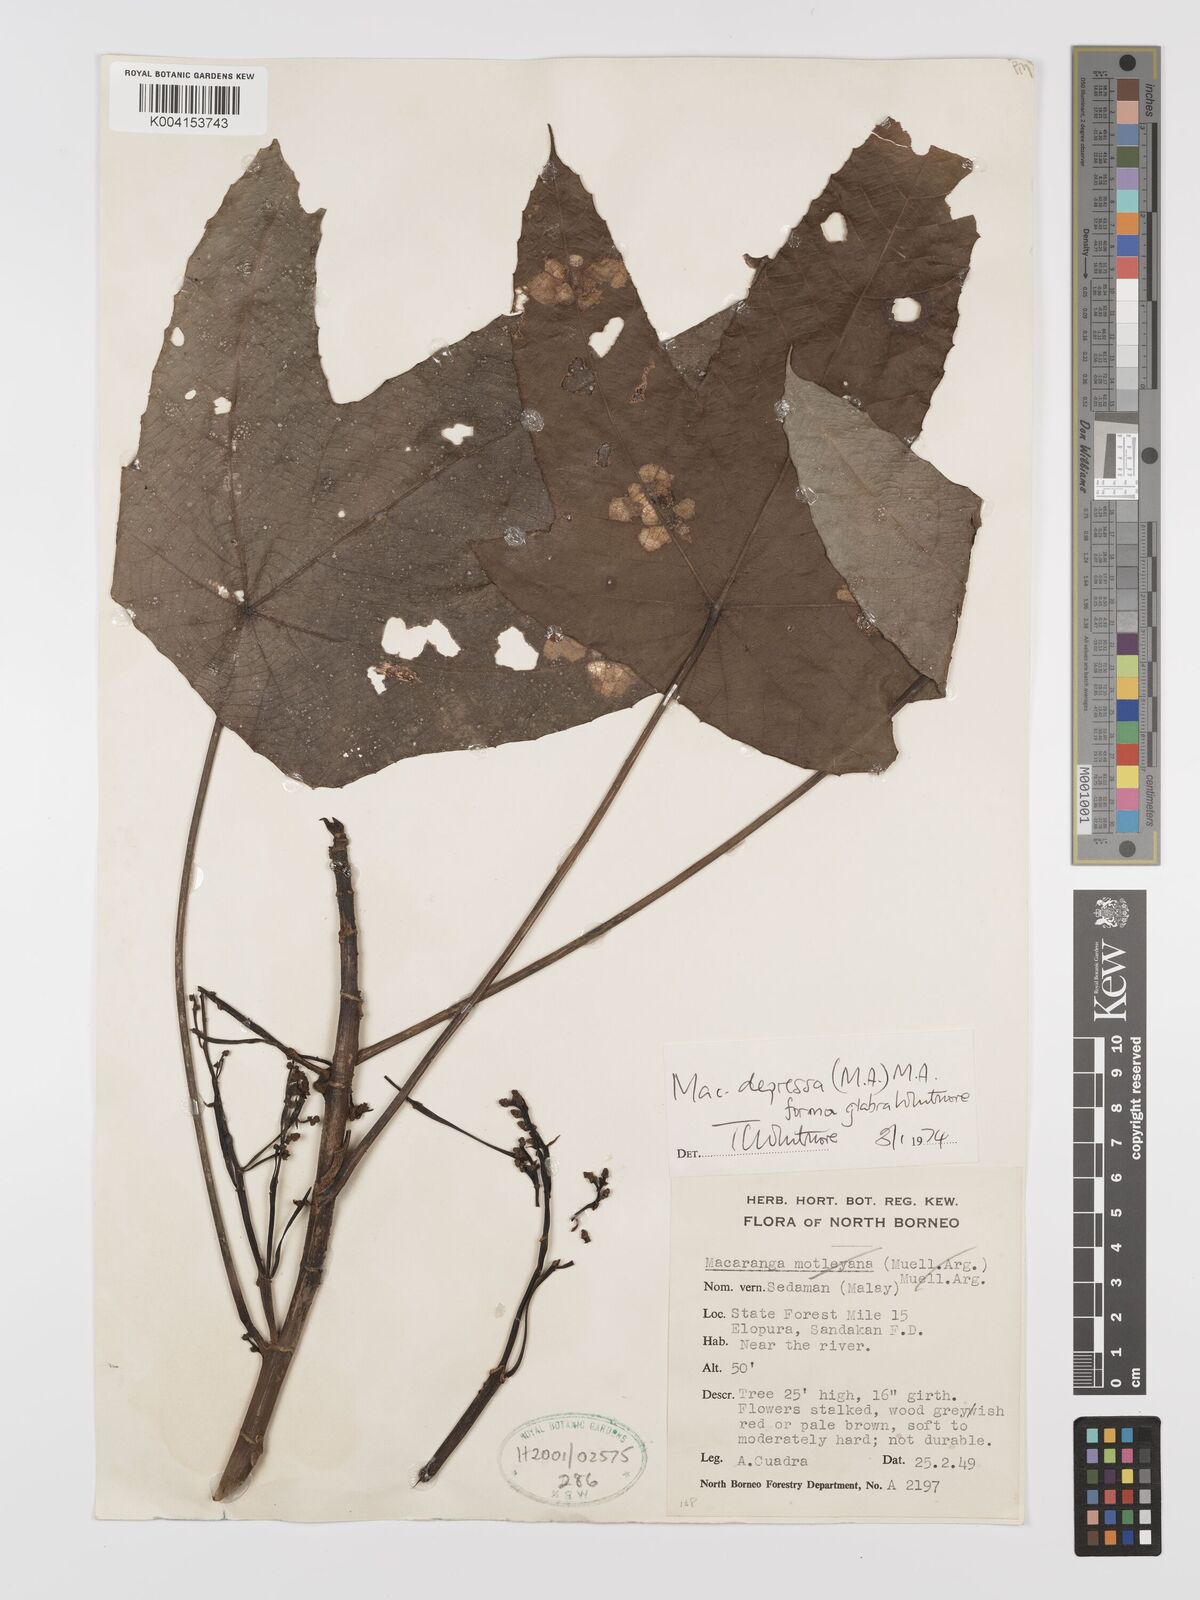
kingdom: Plantae
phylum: Tracheophyta
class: Magnoliopsida
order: Malpighiales
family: Euphorbiaceae
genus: Macaranga
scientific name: Macaranga depressa
